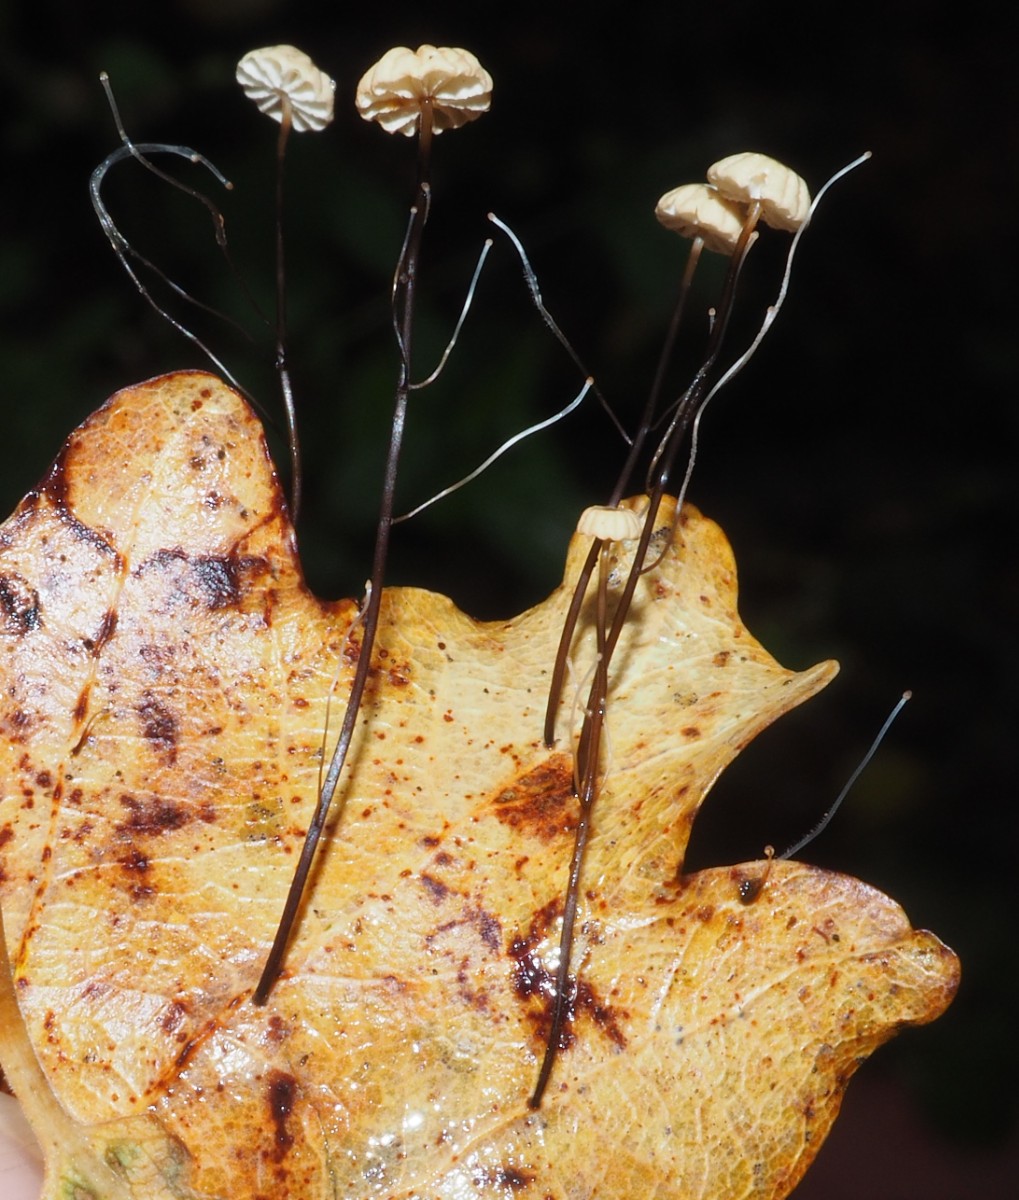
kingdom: Fungi
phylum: Basidiomycota
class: Agaricomycetes
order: Agaricales
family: Marasmiaceae
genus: Marasmius
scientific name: Marasmius bulliardii
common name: furet bruskhat
